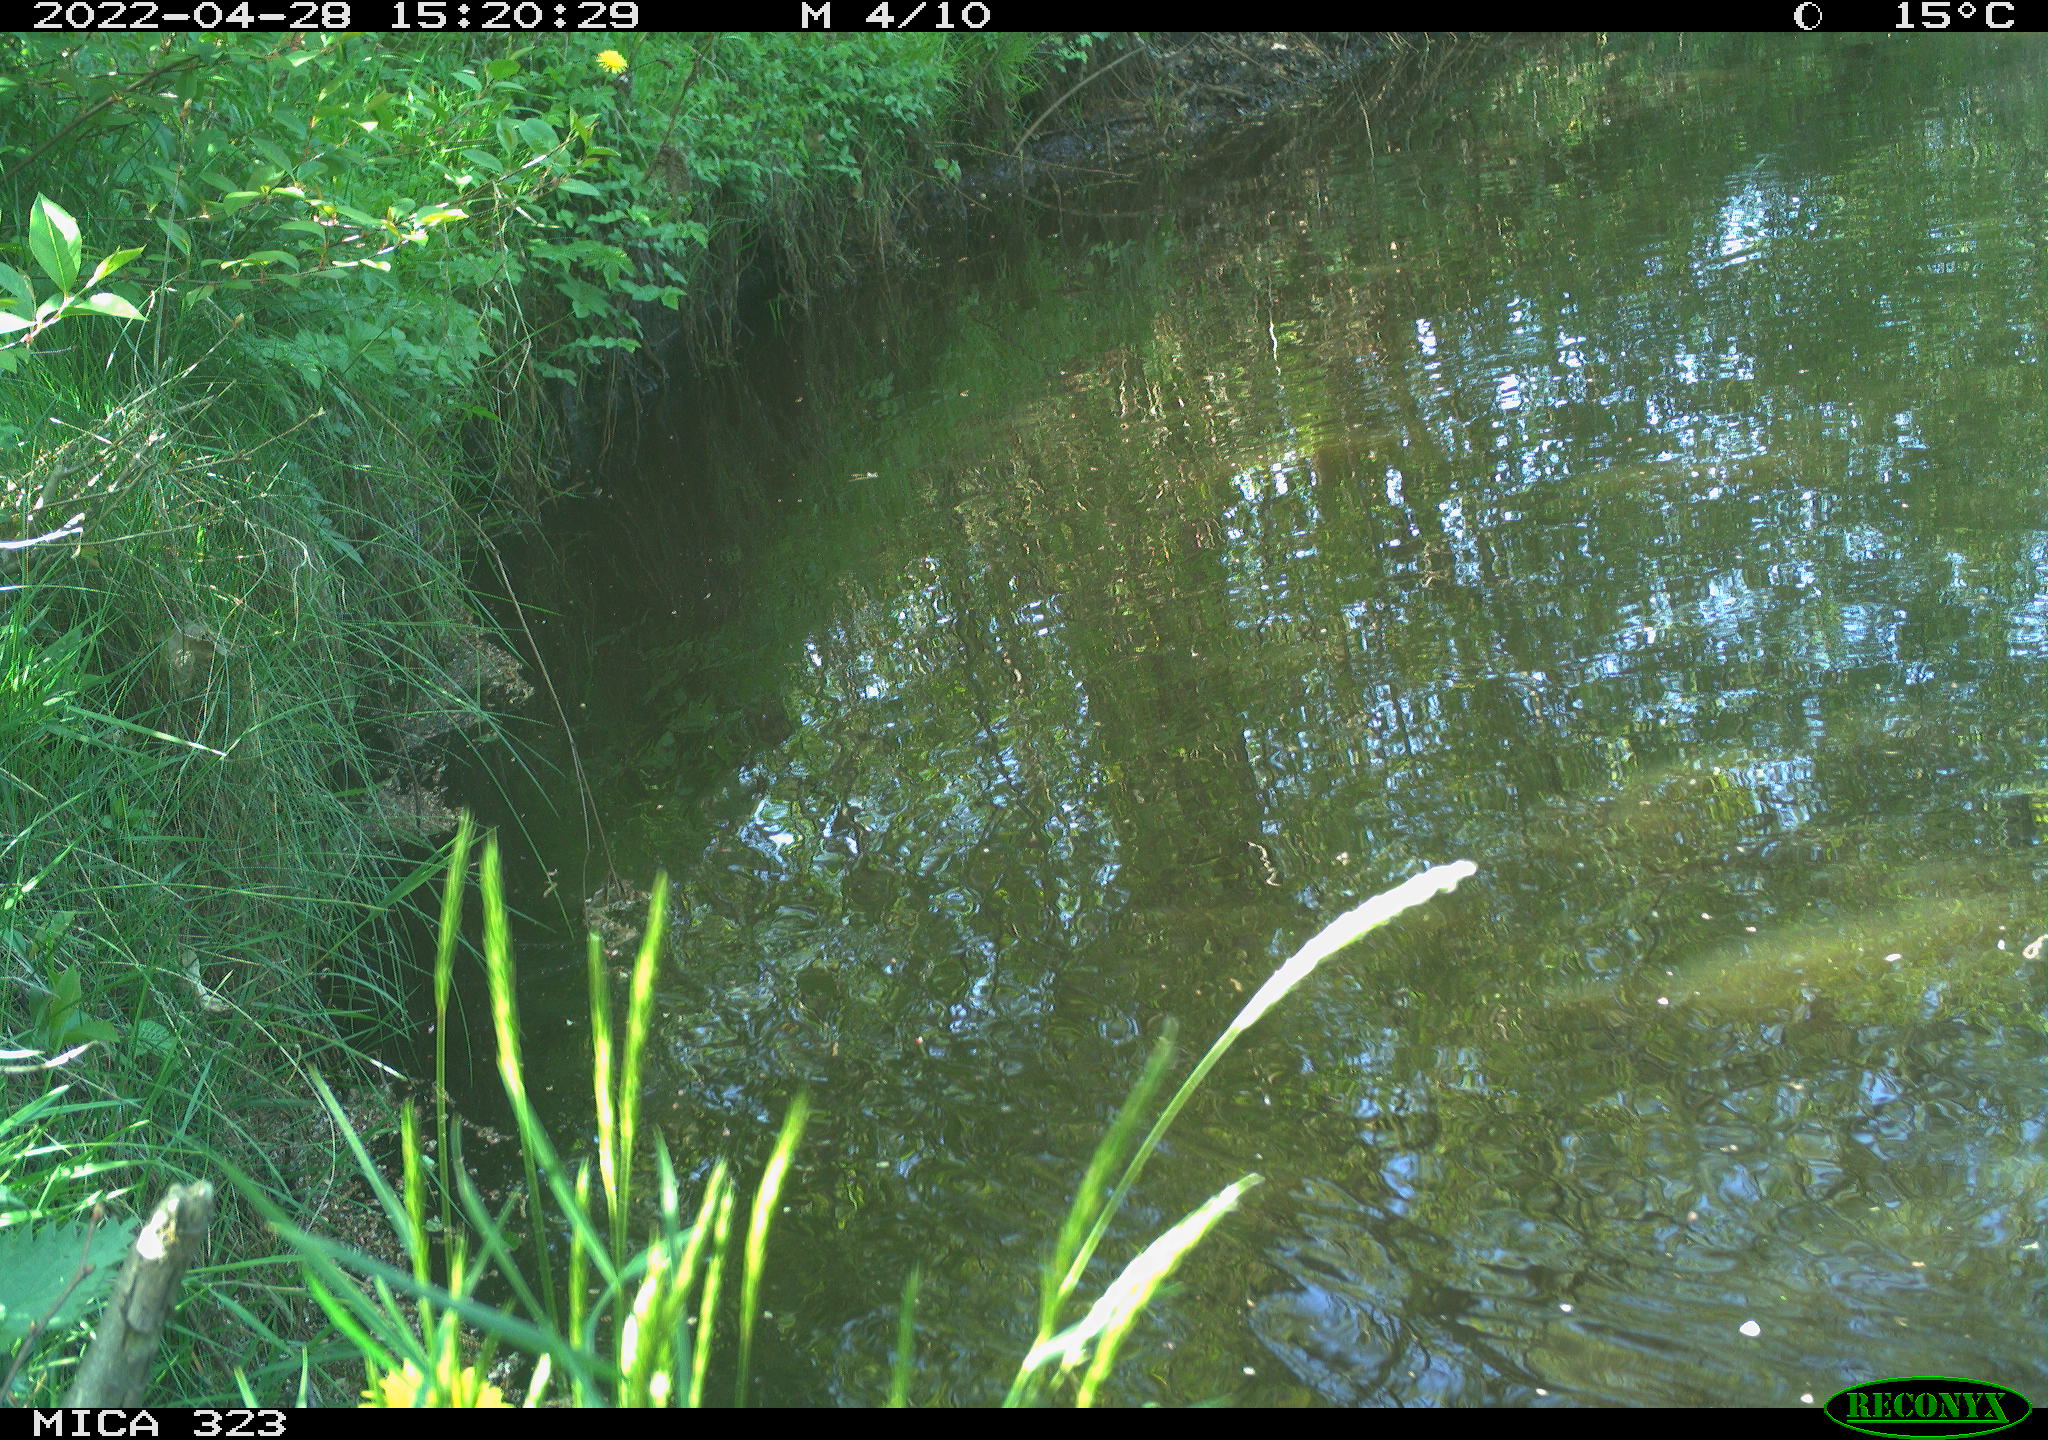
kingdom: Animalia
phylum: Chordata
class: Aves
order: Gruiformes
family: Rallidae
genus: Gallinula
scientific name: Gallinula chloropus
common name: Common moorhen
